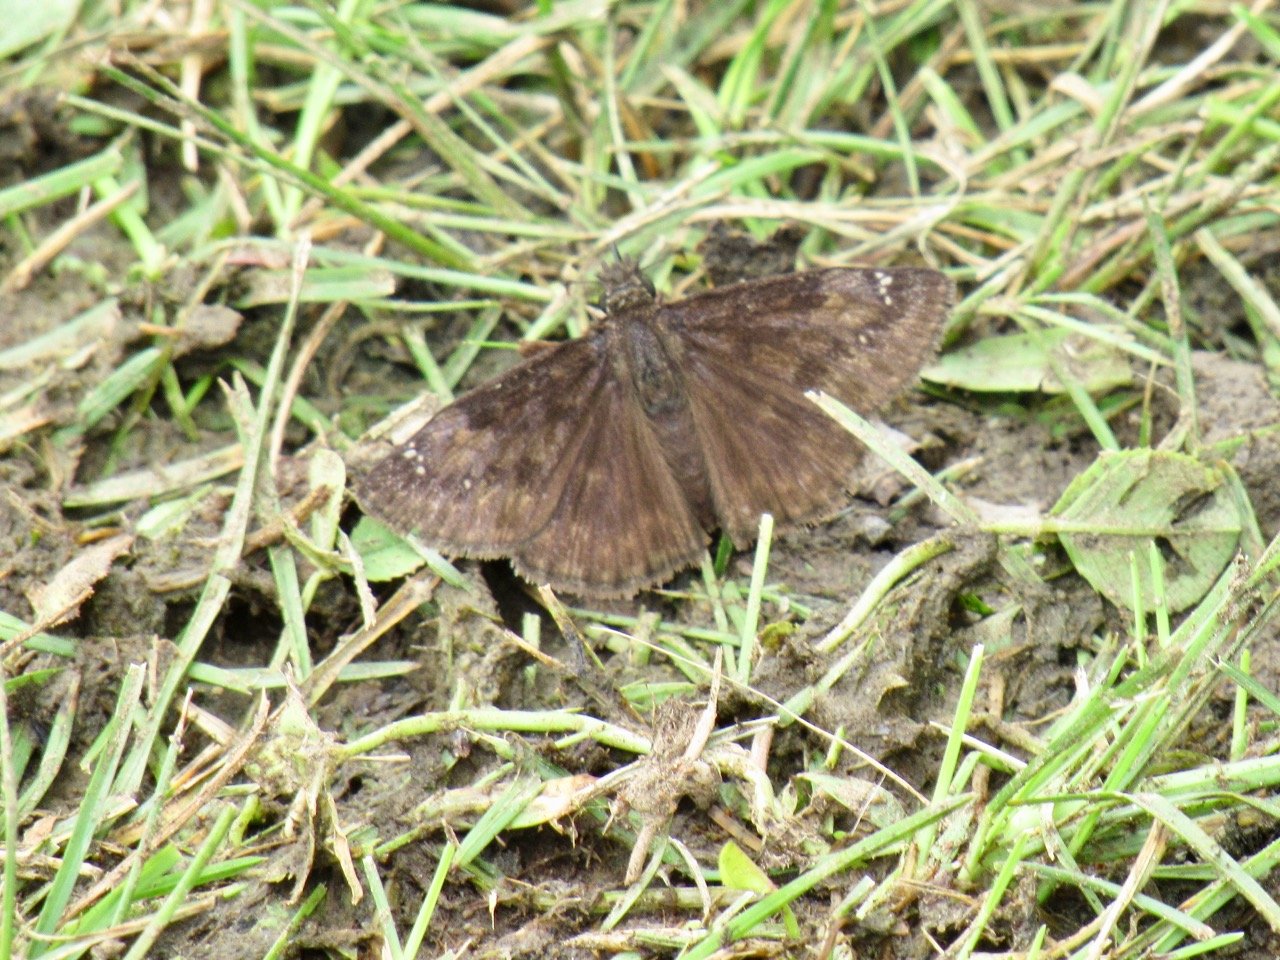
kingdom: Animalia
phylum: Arthropoda
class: Insecta
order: Lepidoptera
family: Hesperiidae
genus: Gesta
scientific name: Gesta
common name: Wild Indigo Duskywing
